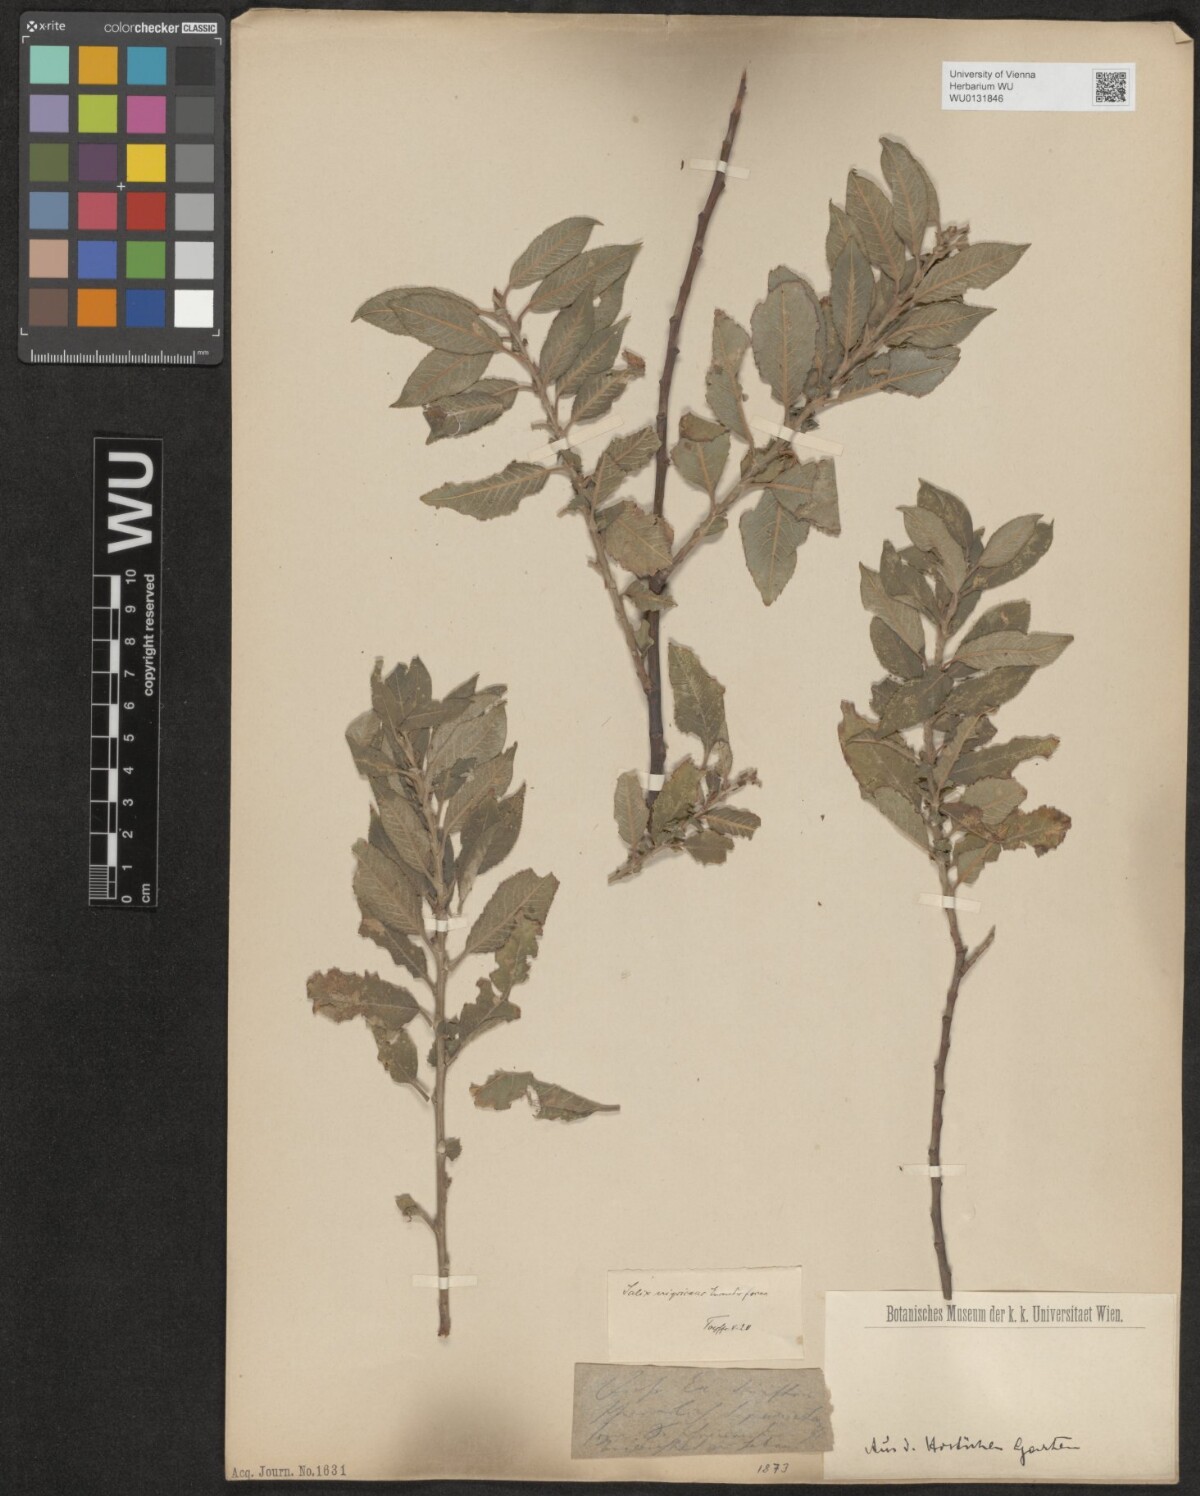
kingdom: Plantae
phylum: Tracheophyta
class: Magnoliopsida
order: Malpighiales
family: Salicaceae
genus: Salix
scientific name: Salix myrsinifolia
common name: Dark-leaved willow
